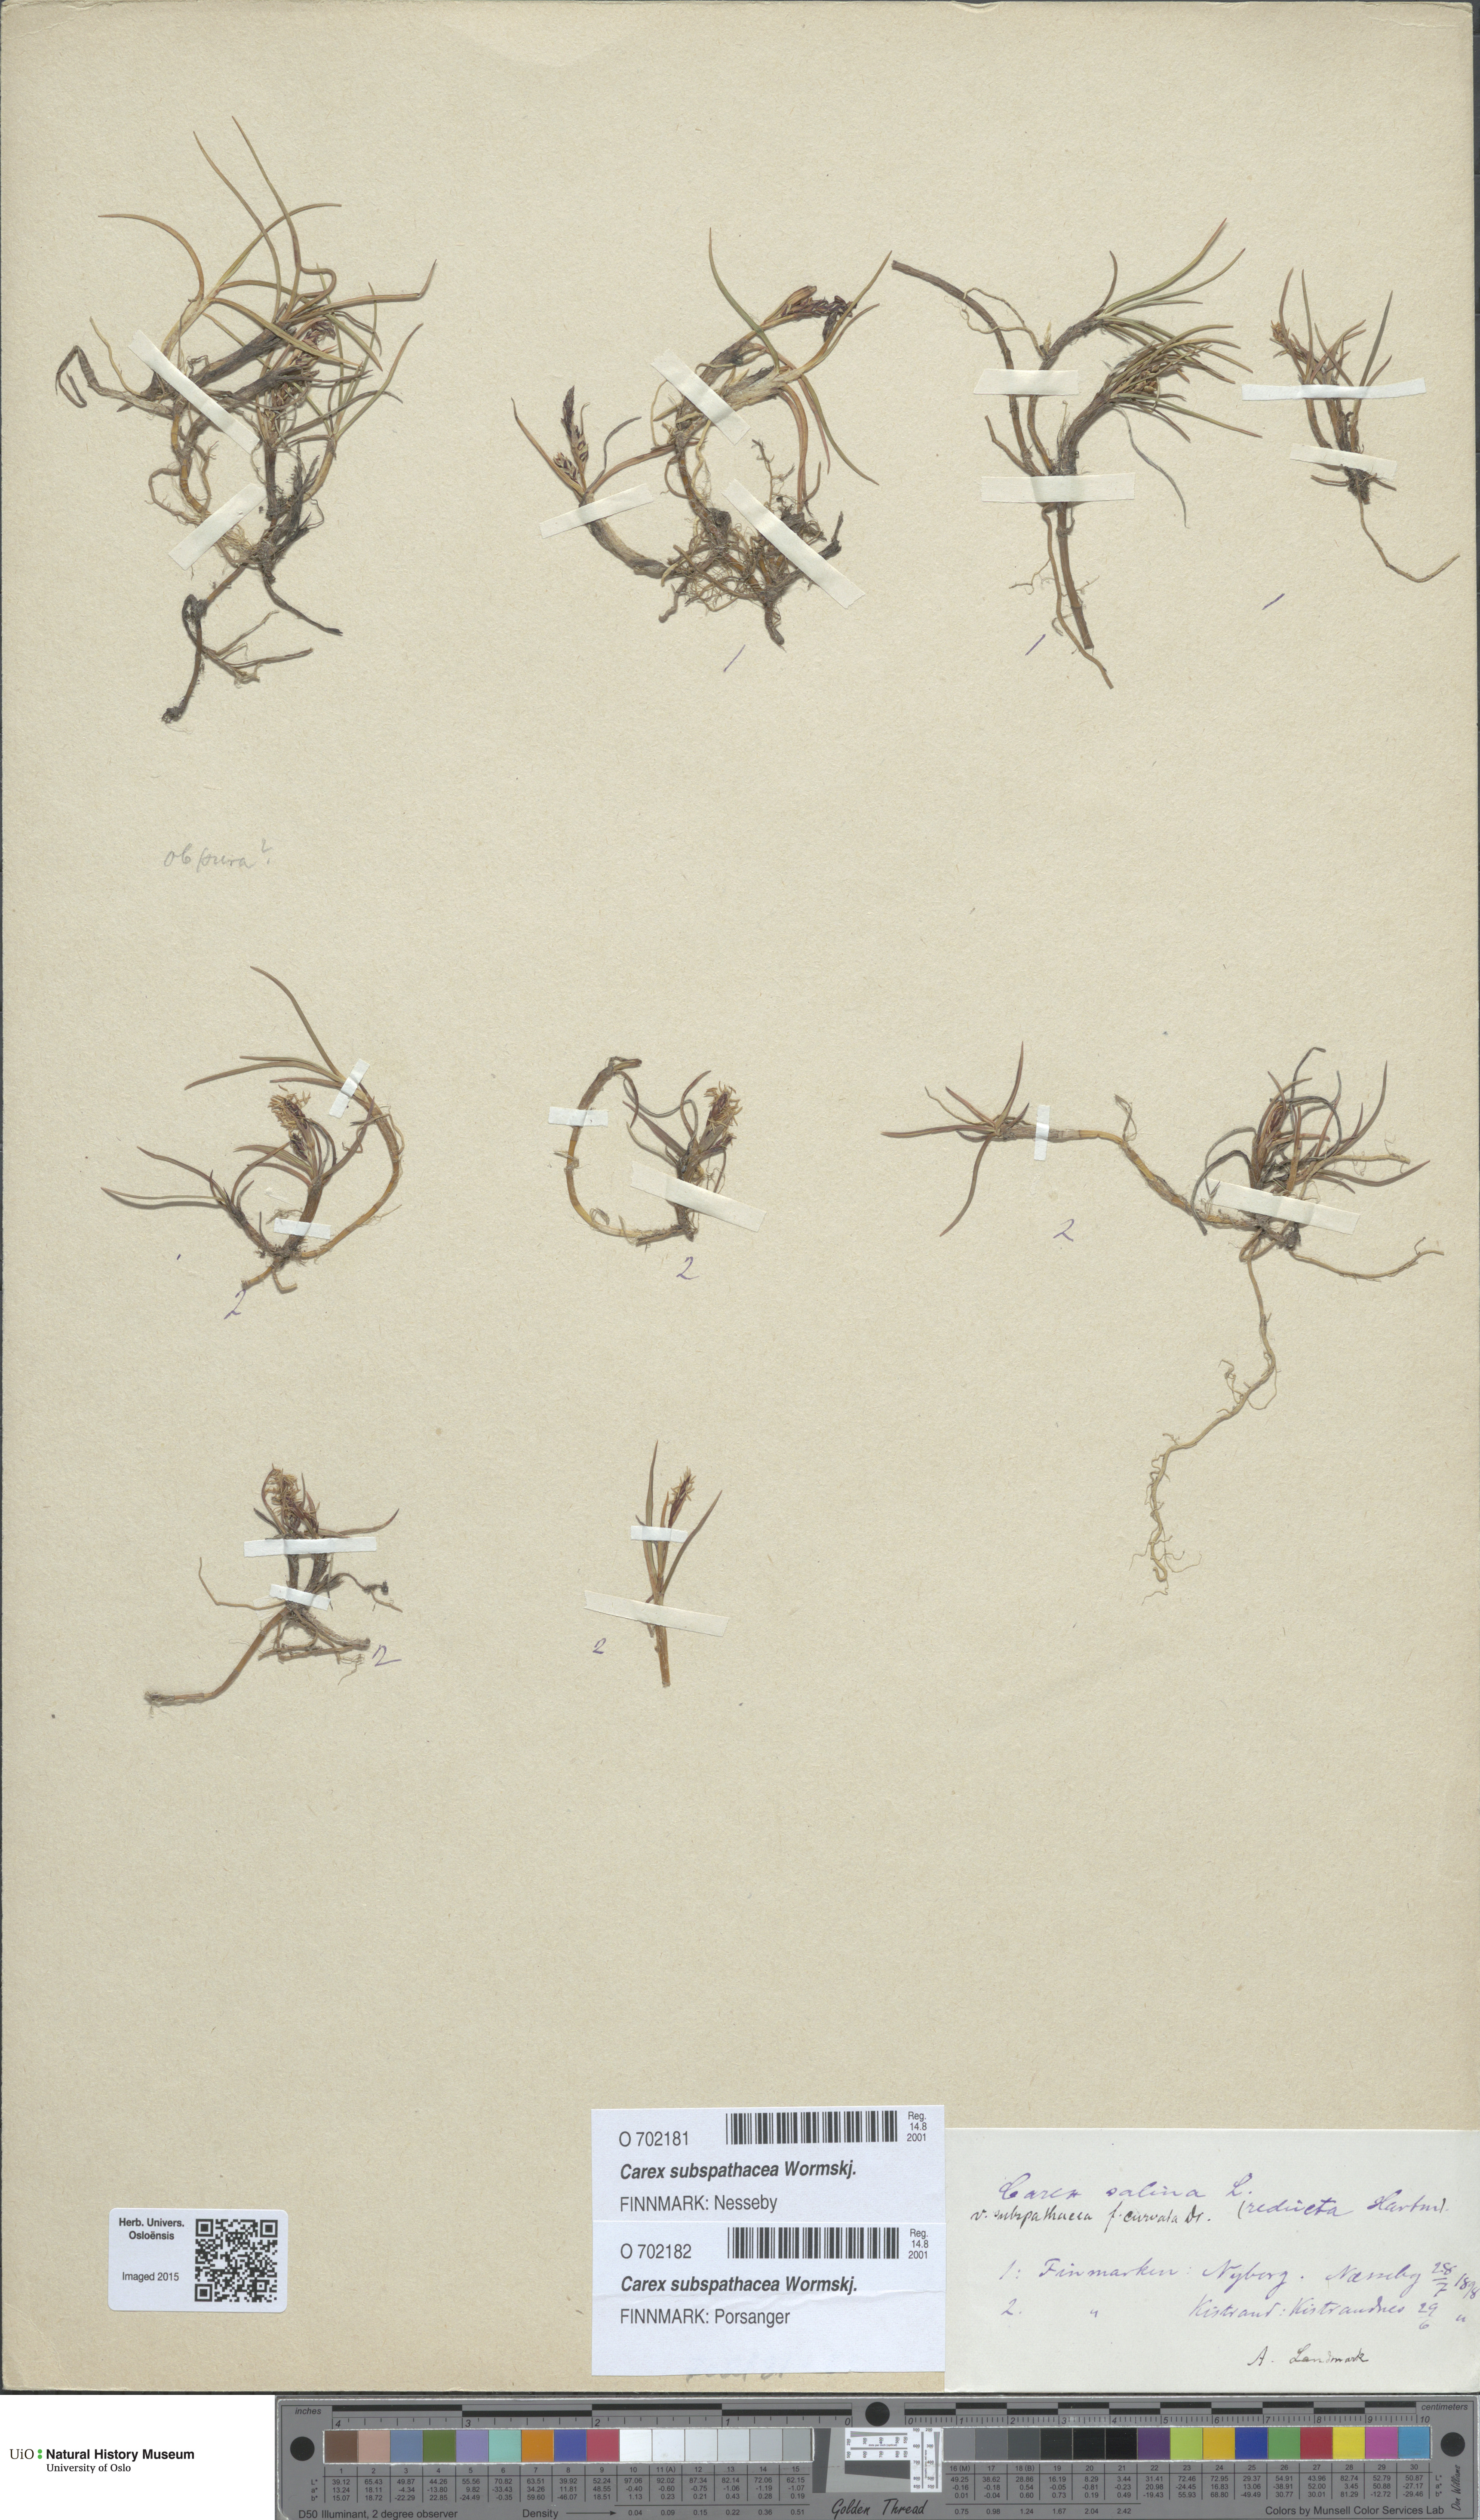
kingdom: Plantae
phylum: Tracheophyta
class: Liliopsida
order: Poales
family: Cyperaceae
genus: Carex
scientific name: Carex subspathacea
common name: Hoppner's sedge
